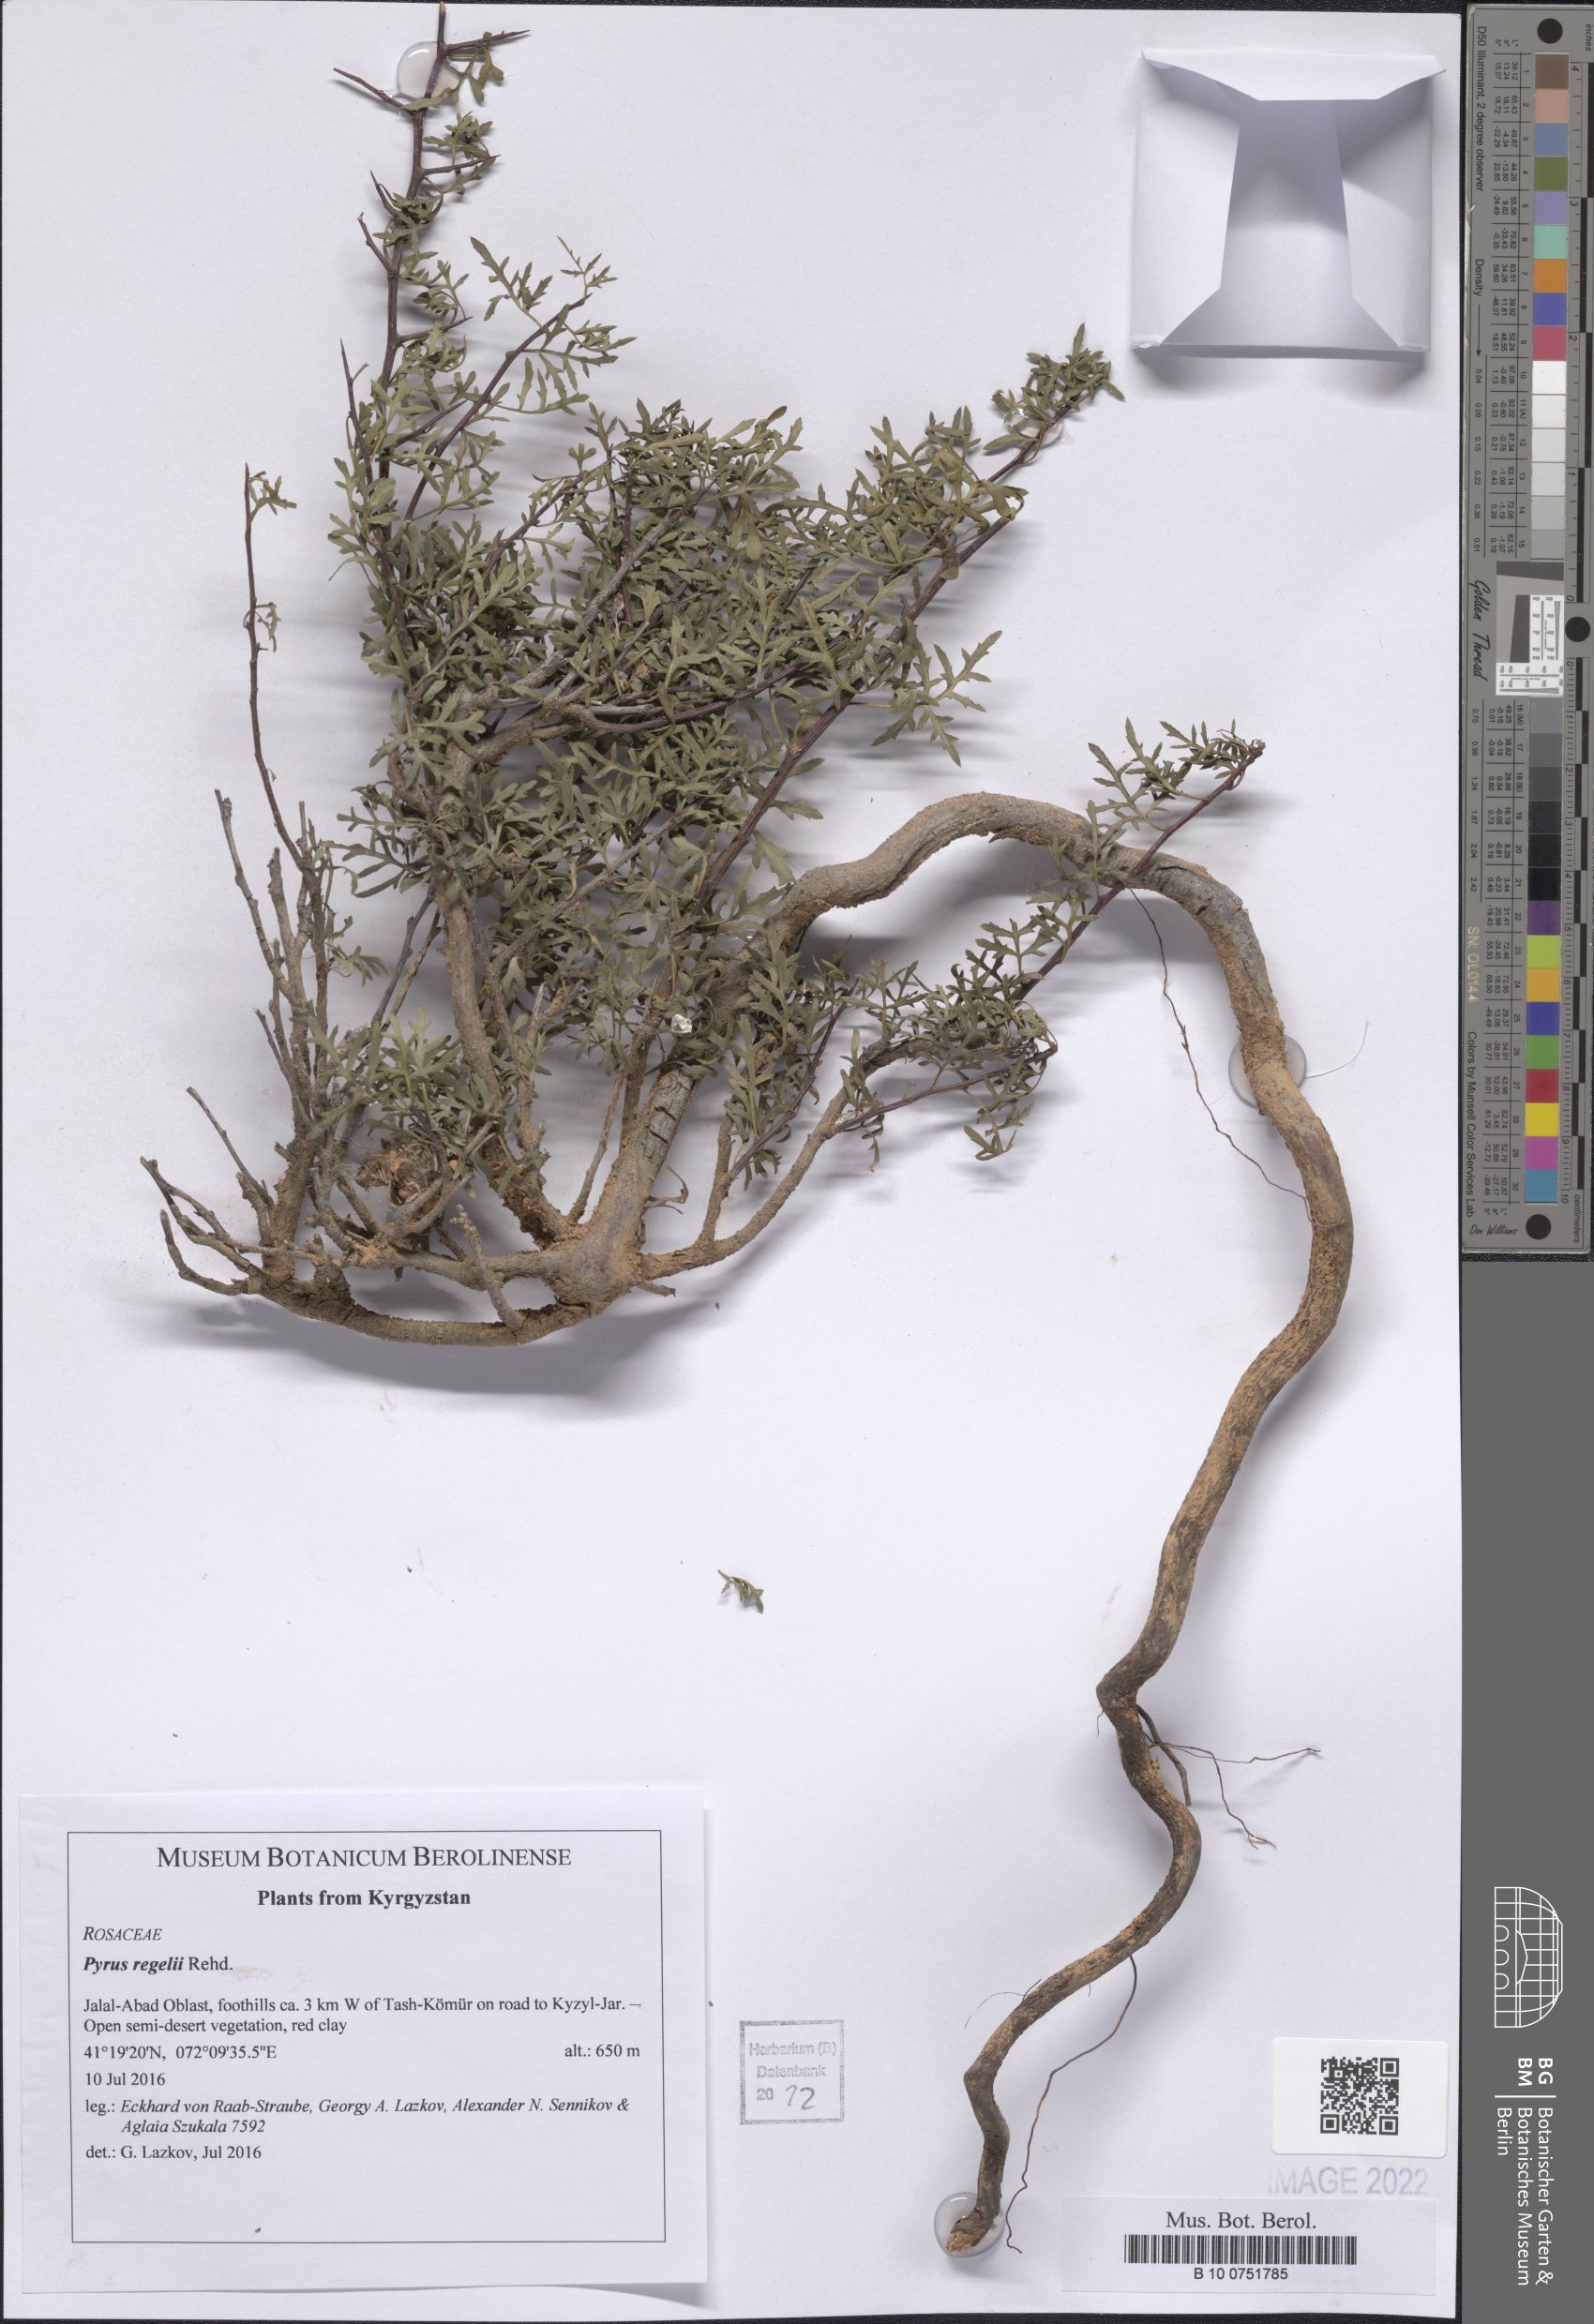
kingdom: Plantae
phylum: Tracheophyta
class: Magnoliopsida
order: Rosales
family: Rosaceae
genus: Pyrus
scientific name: Pyrus regelii
